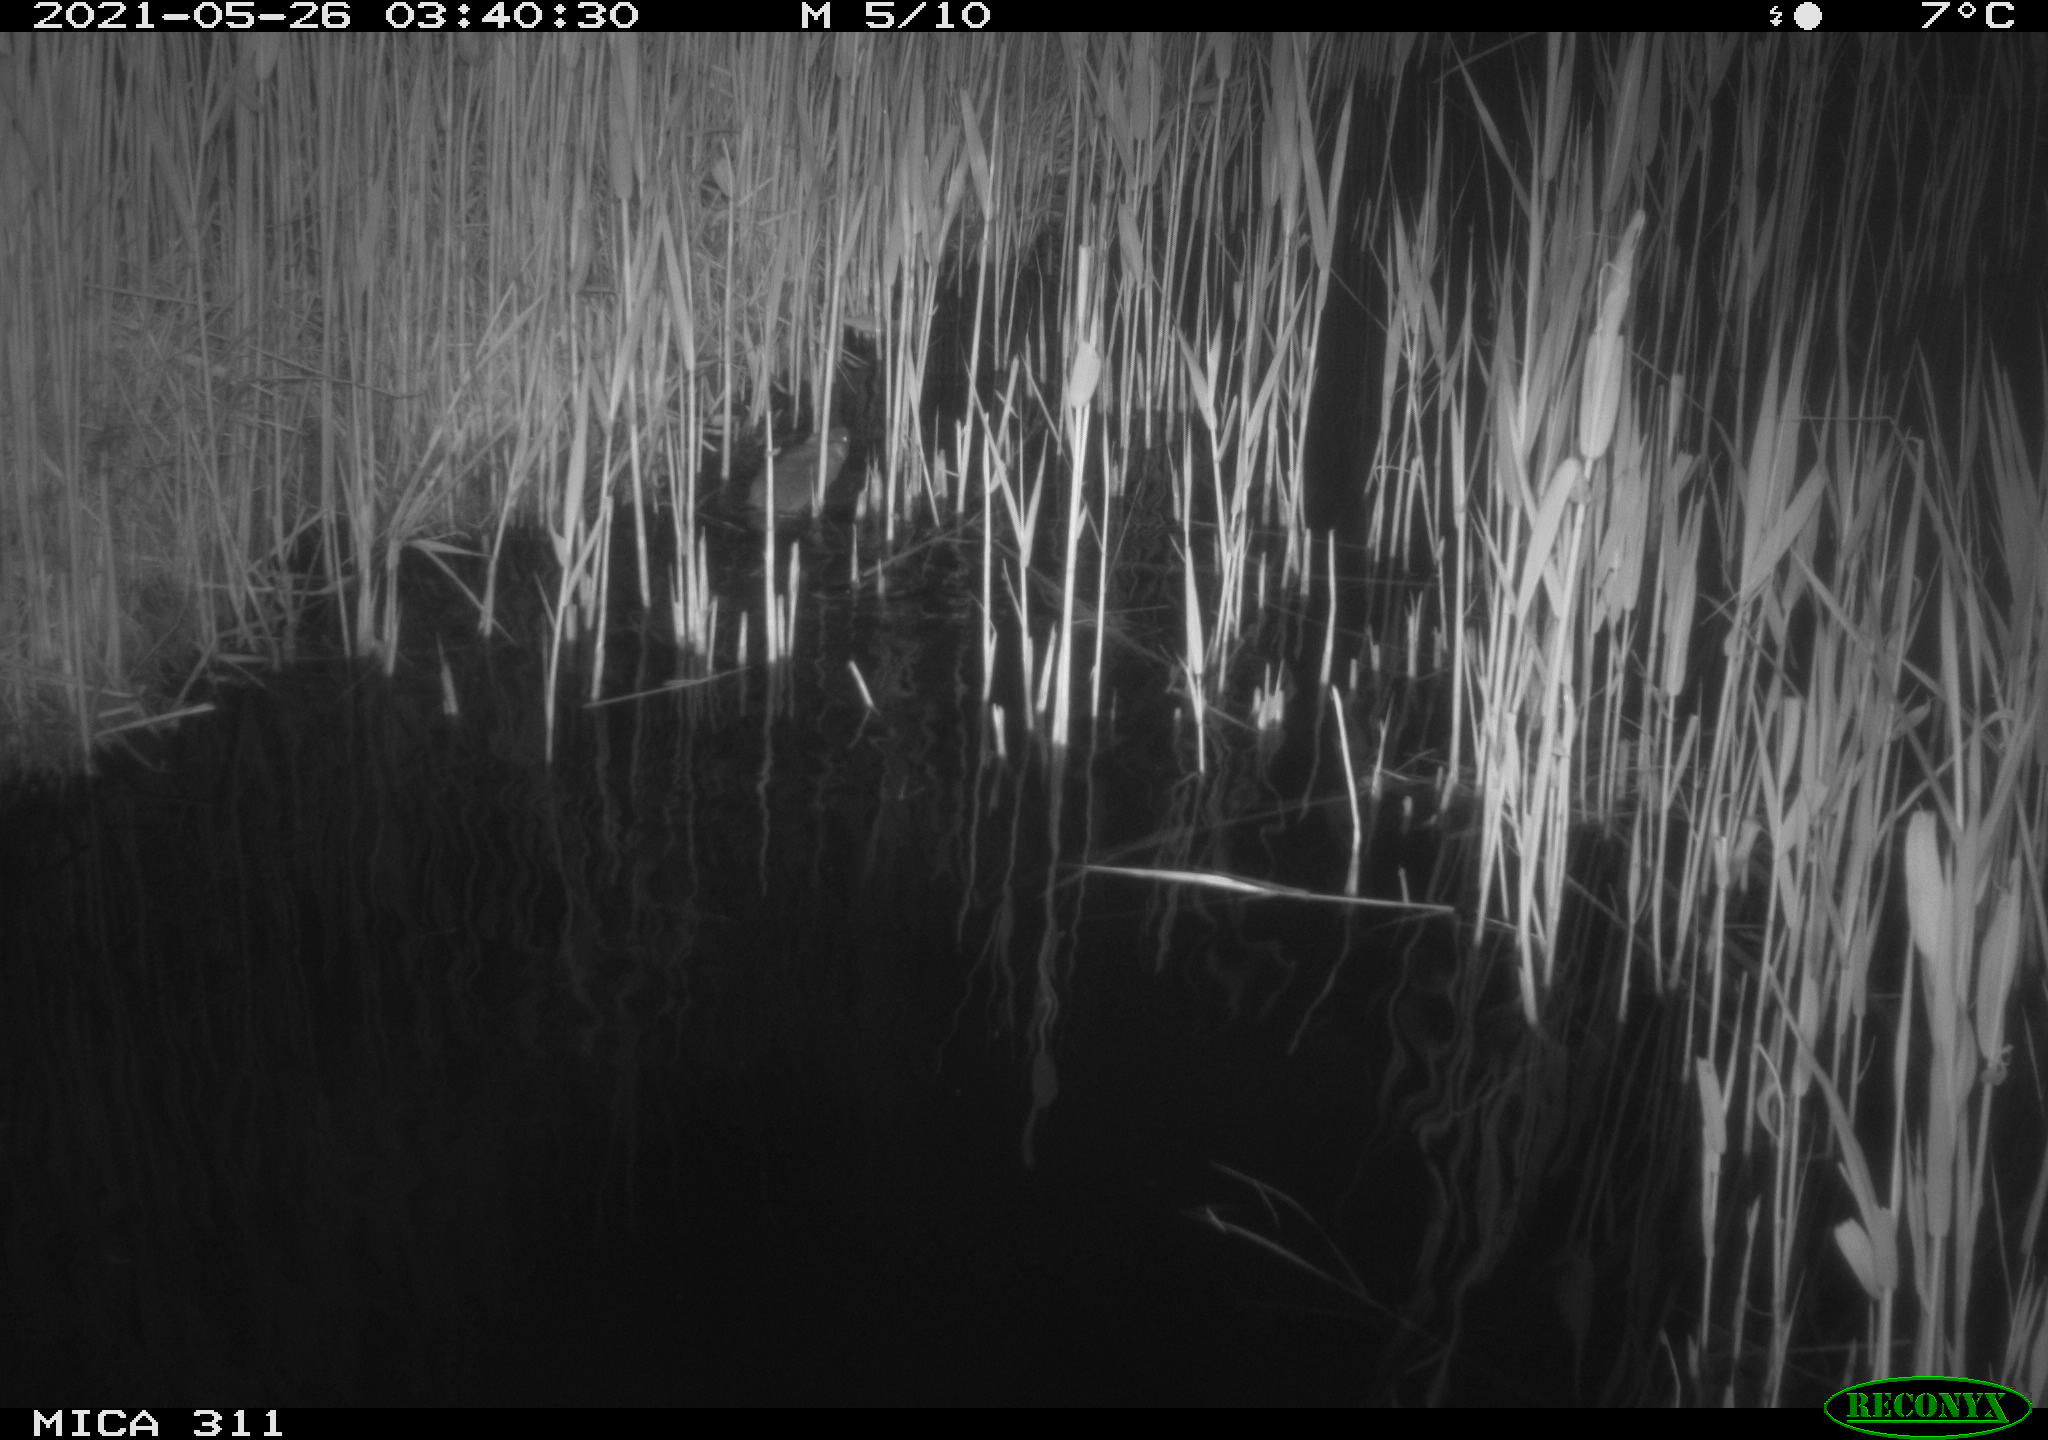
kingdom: Animalia
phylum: Chordata
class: Mammalia
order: Rodentia
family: Cricetidae
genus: Ondatra
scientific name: Ondatra zibethicus
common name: Muskrat
